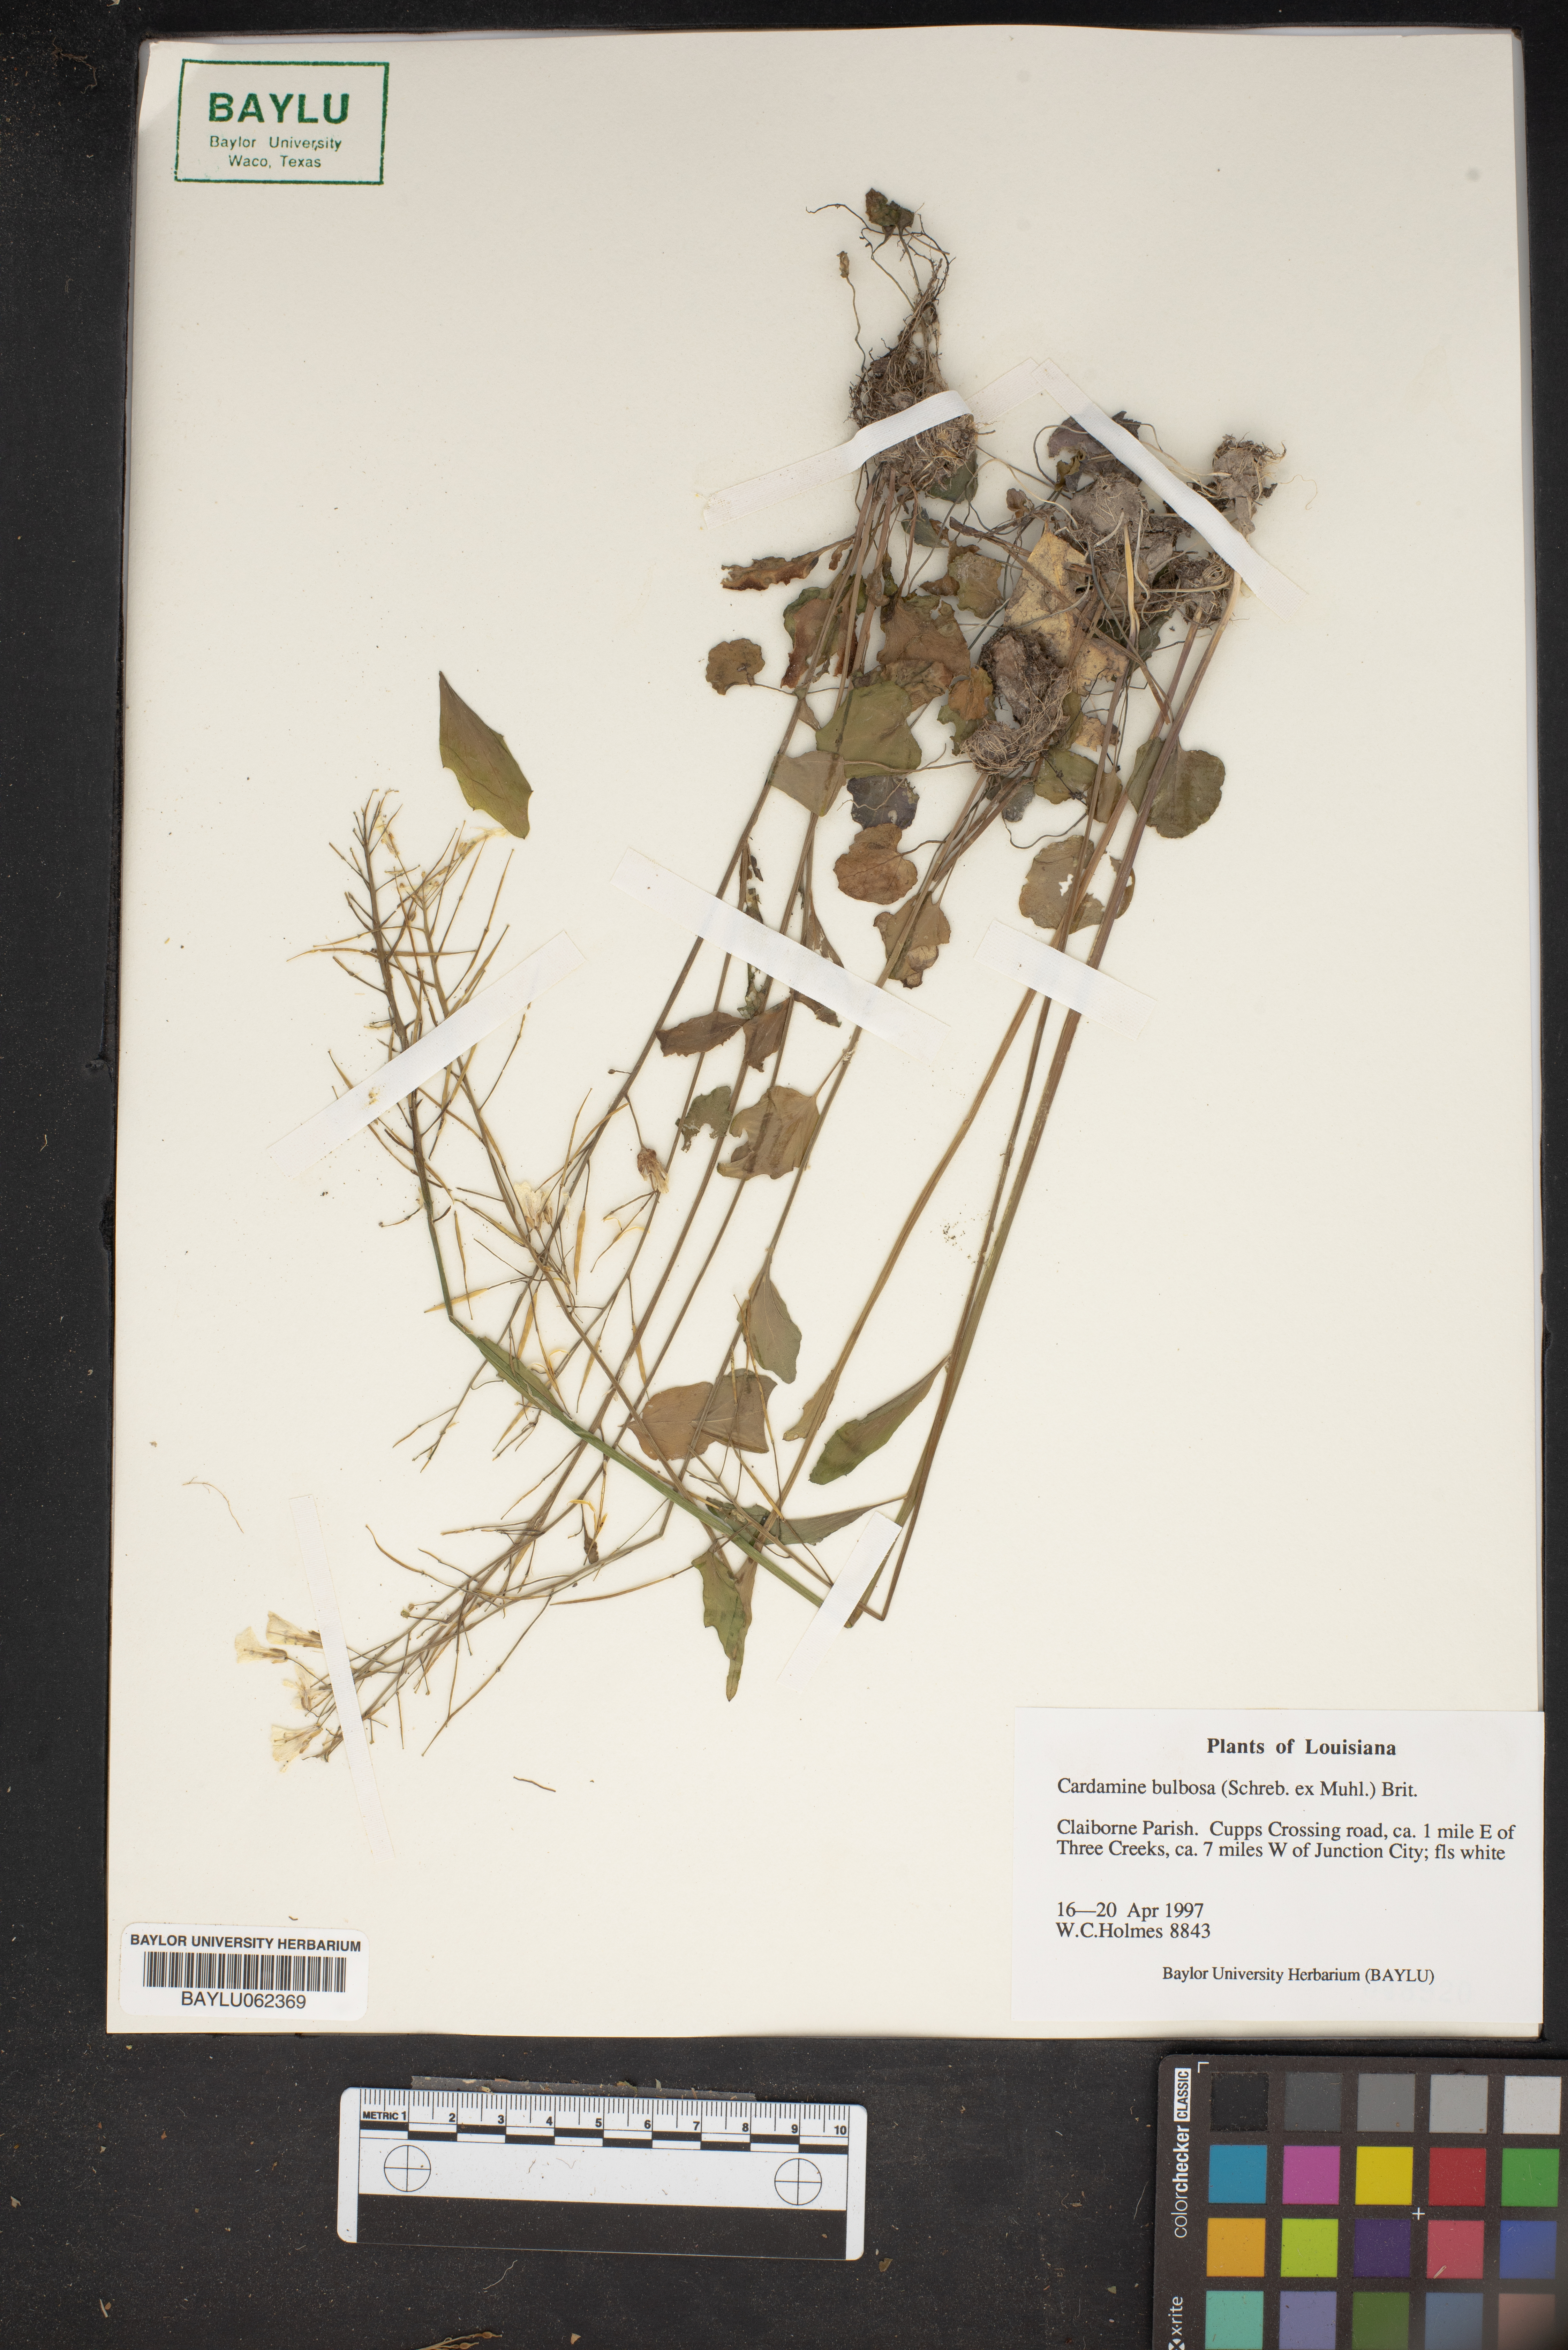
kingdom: Plantae
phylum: Tracheophyta
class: Magnoliopsida
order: Brassicales
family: Brassicaceae
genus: Cardamine
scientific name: Cardamine bulbosa
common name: Spring cress
